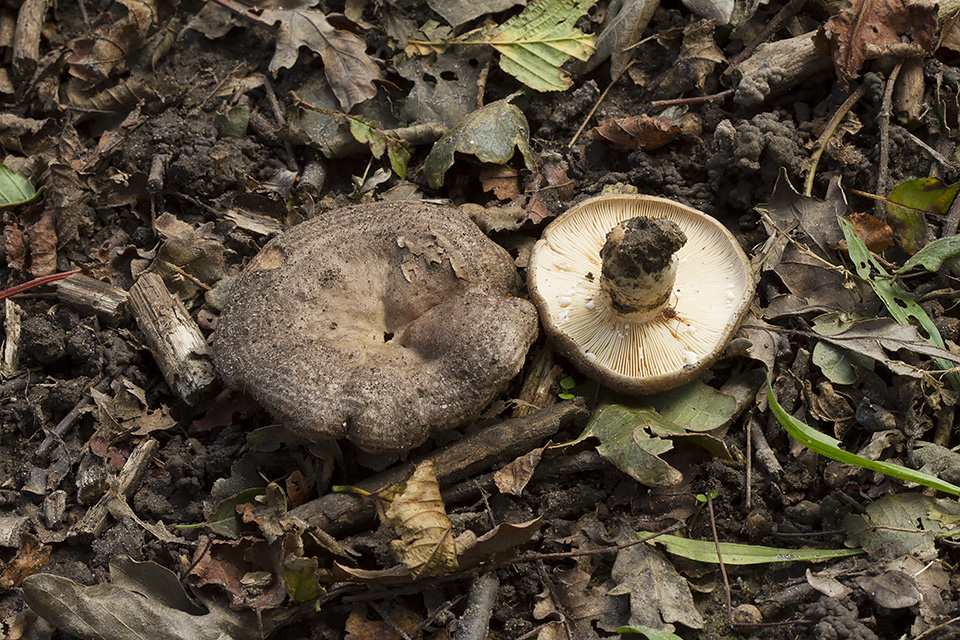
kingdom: Fungi
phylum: Basidiomycota
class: Agaricomycetes
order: Russulales
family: Russulaceae
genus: Lactarius
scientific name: Lactarius circellatus
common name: avnbøg-mælkehat
